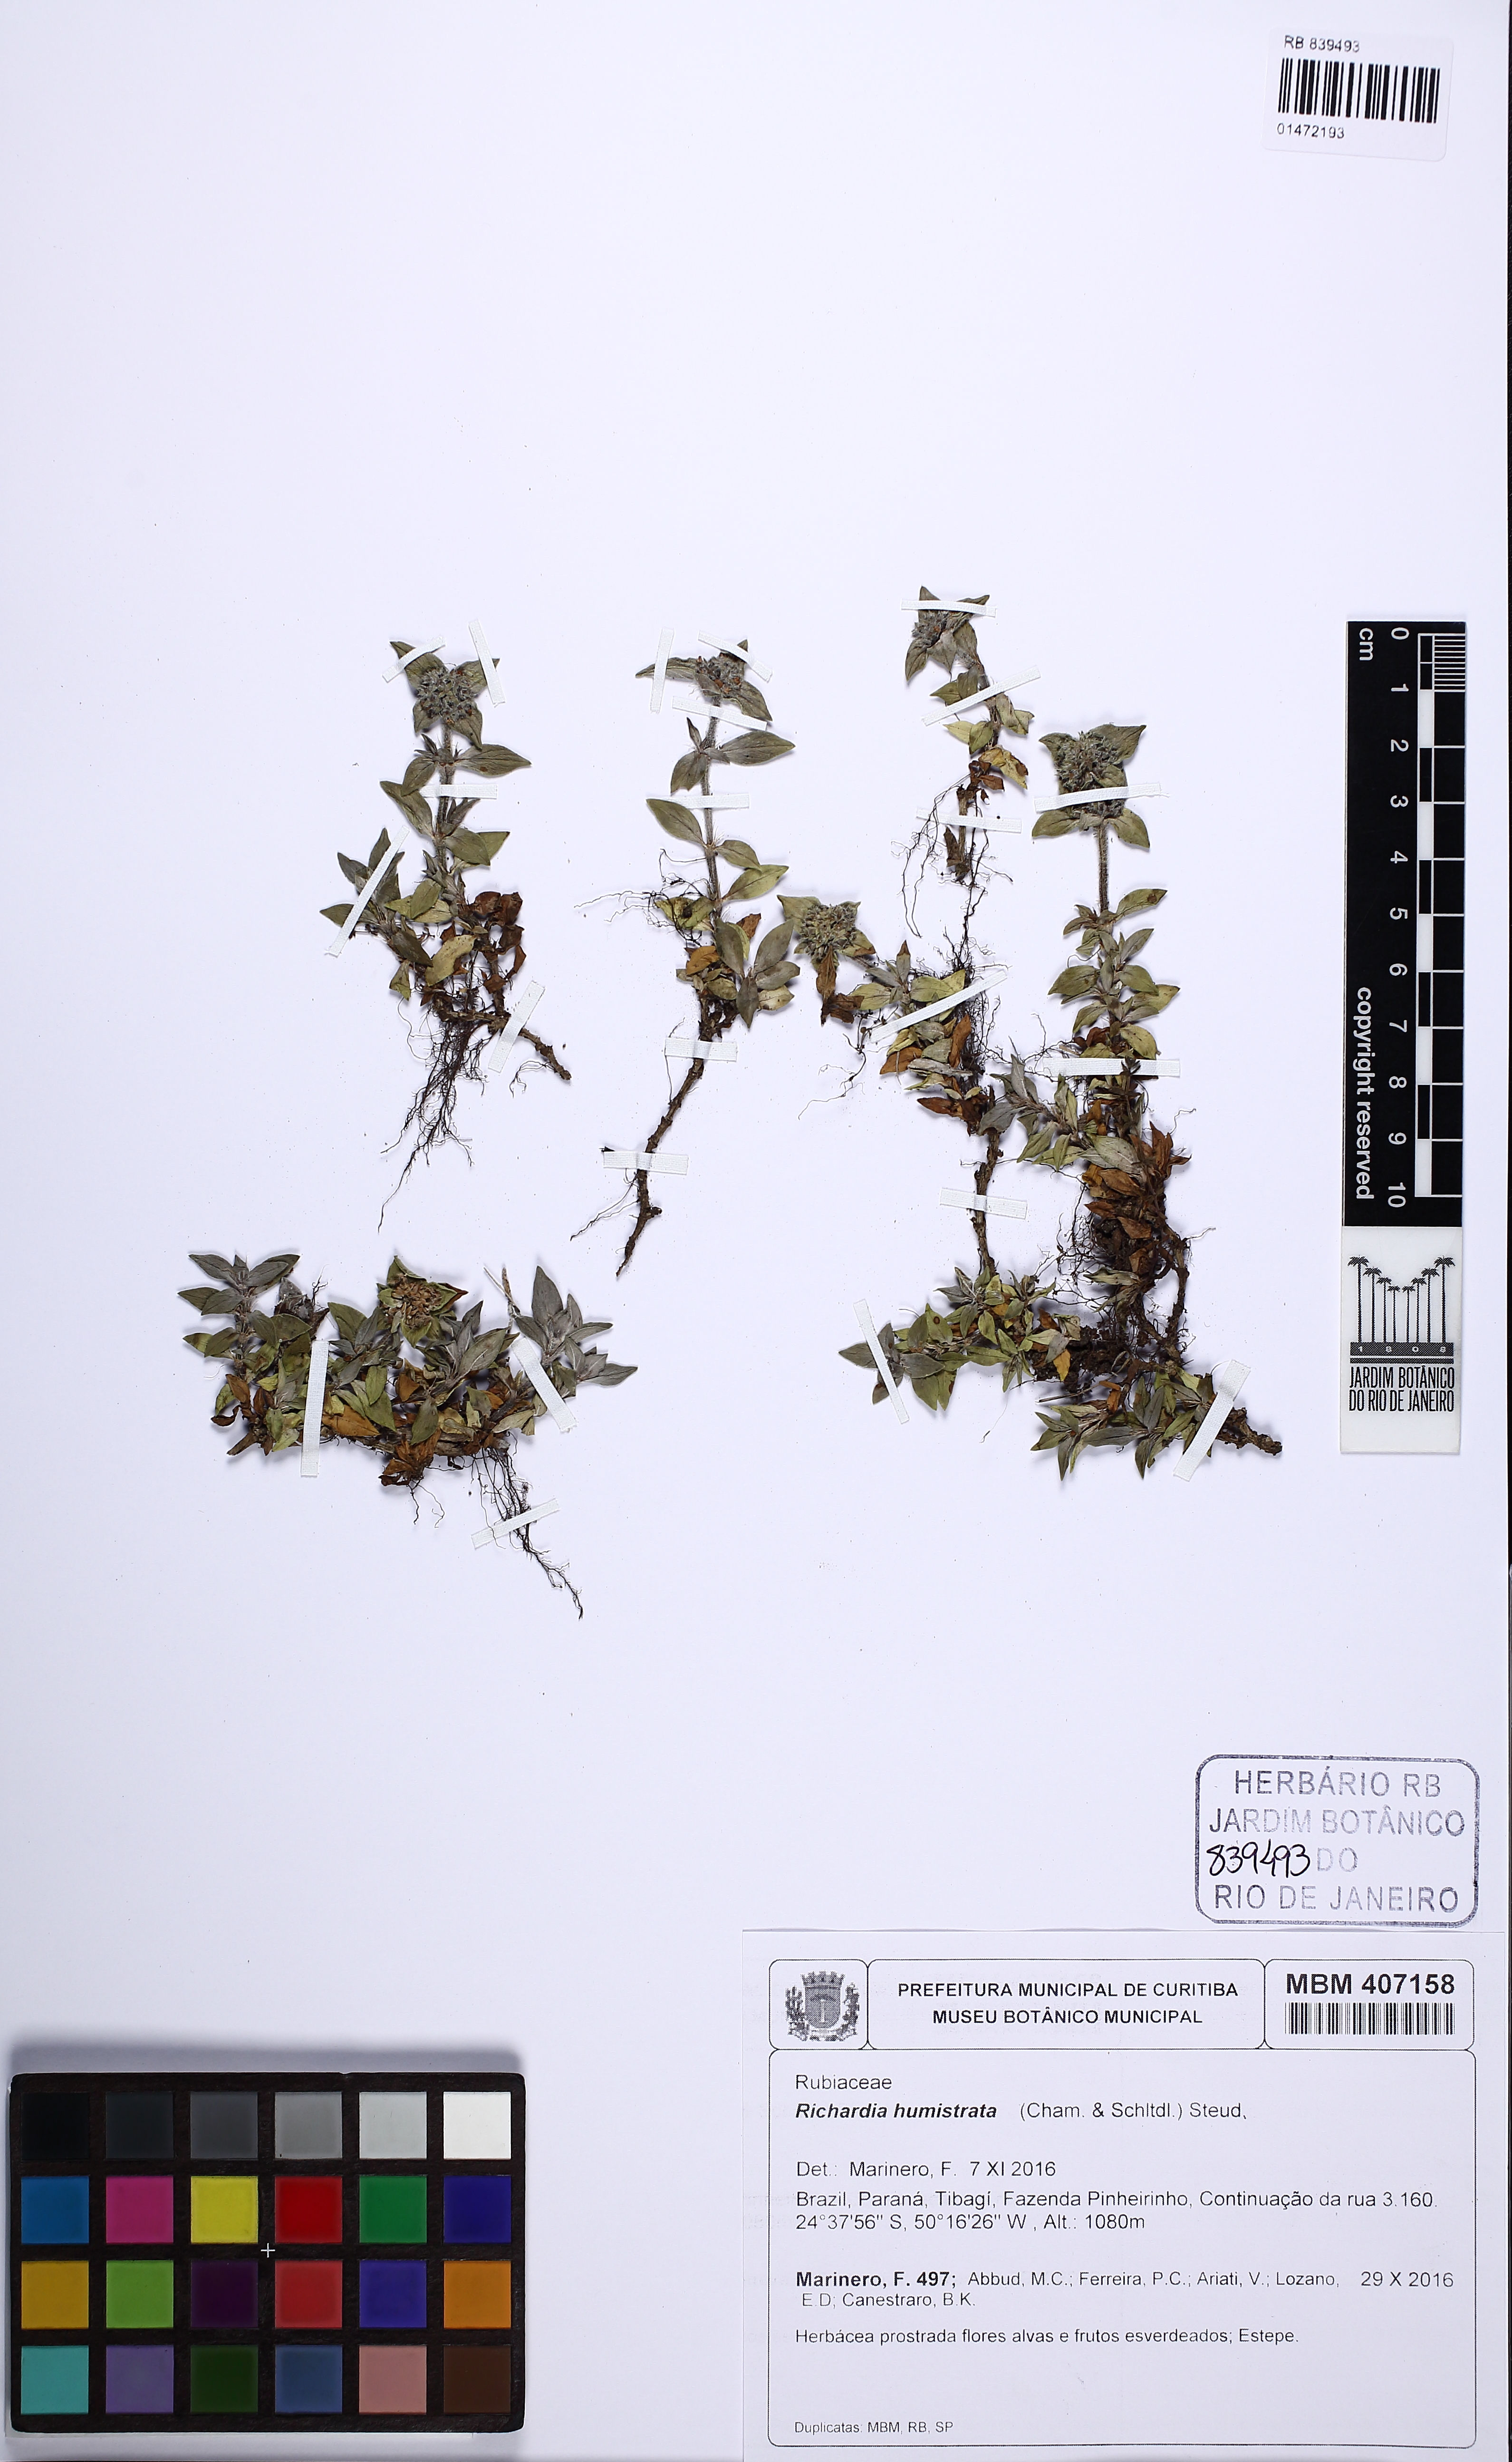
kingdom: Plantae
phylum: Tracheophyta
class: Magnoliopsida
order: Gentianales
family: Rubiaceae
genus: Richardia
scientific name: Richardia humistrata
